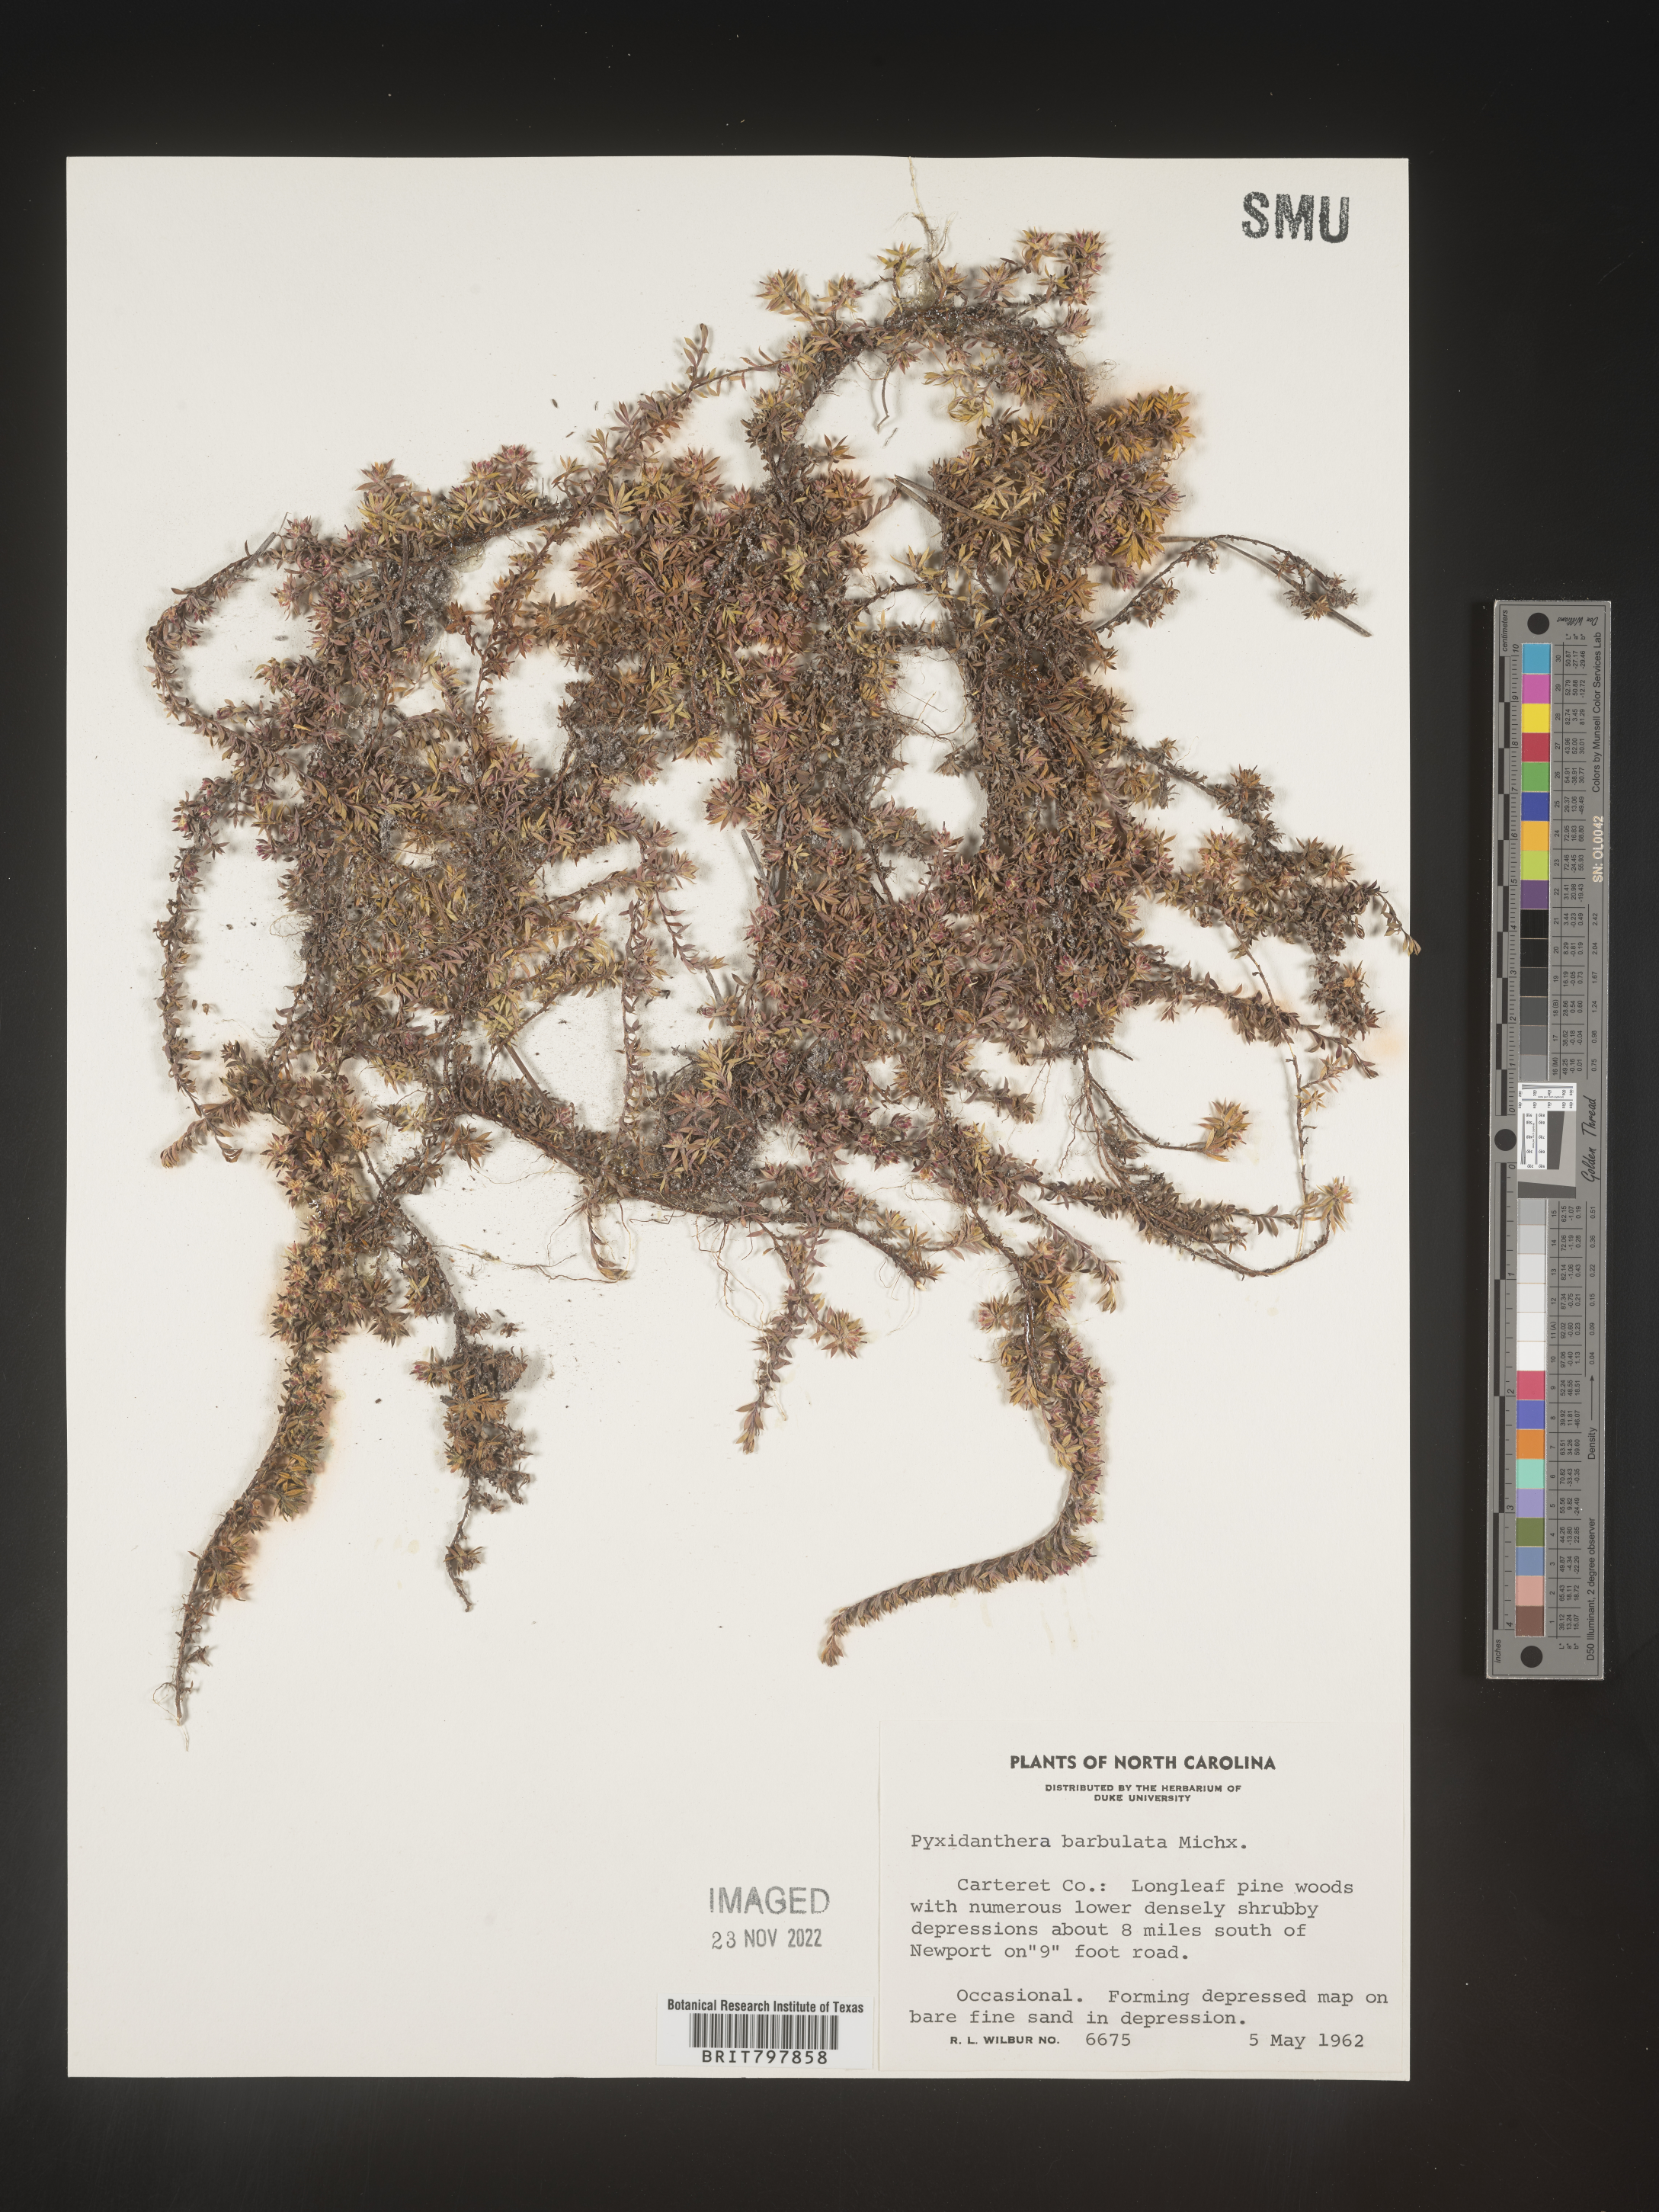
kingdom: Plantae
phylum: Tracheophyta
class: Magnoliopsida
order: Ericales
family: Diapensiaceae
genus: Pyxidanthera
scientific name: Pyxidanthera barbulata
